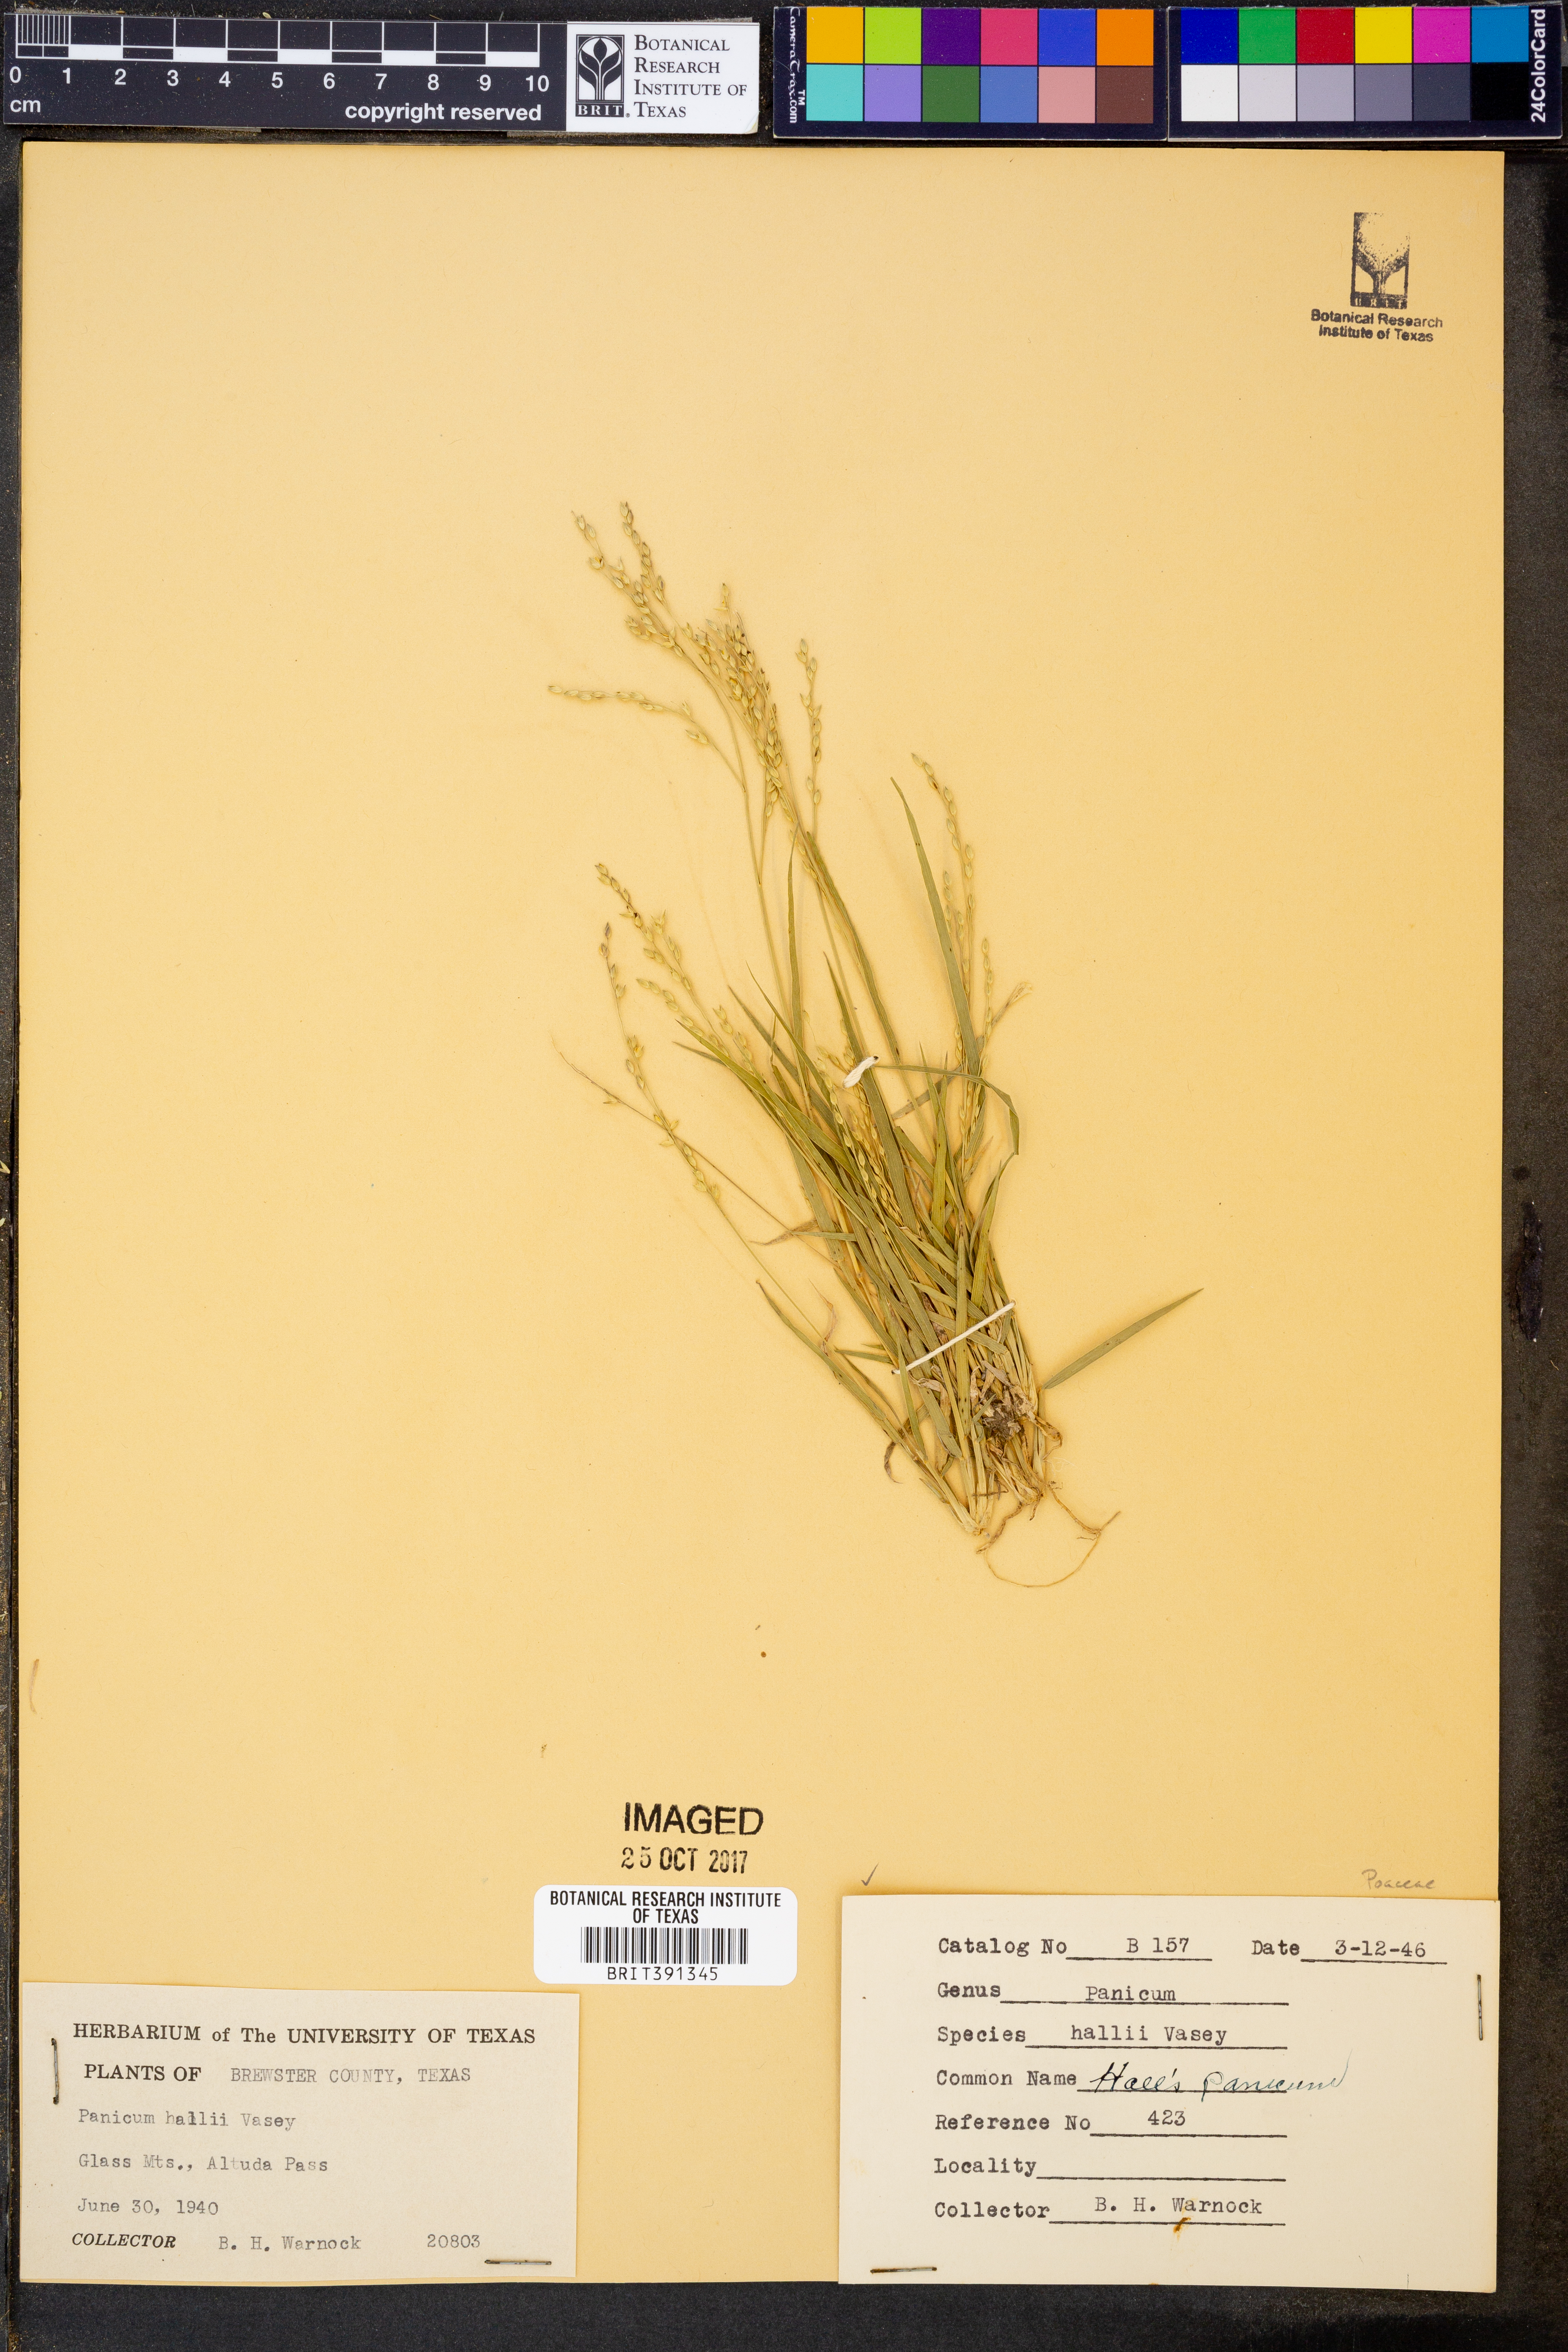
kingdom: Plantae
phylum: Tracheophyta
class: Liliopsida
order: Poales
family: Poaceae
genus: Panicum
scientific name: Panicum hallii
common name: Hall's witchgrass
